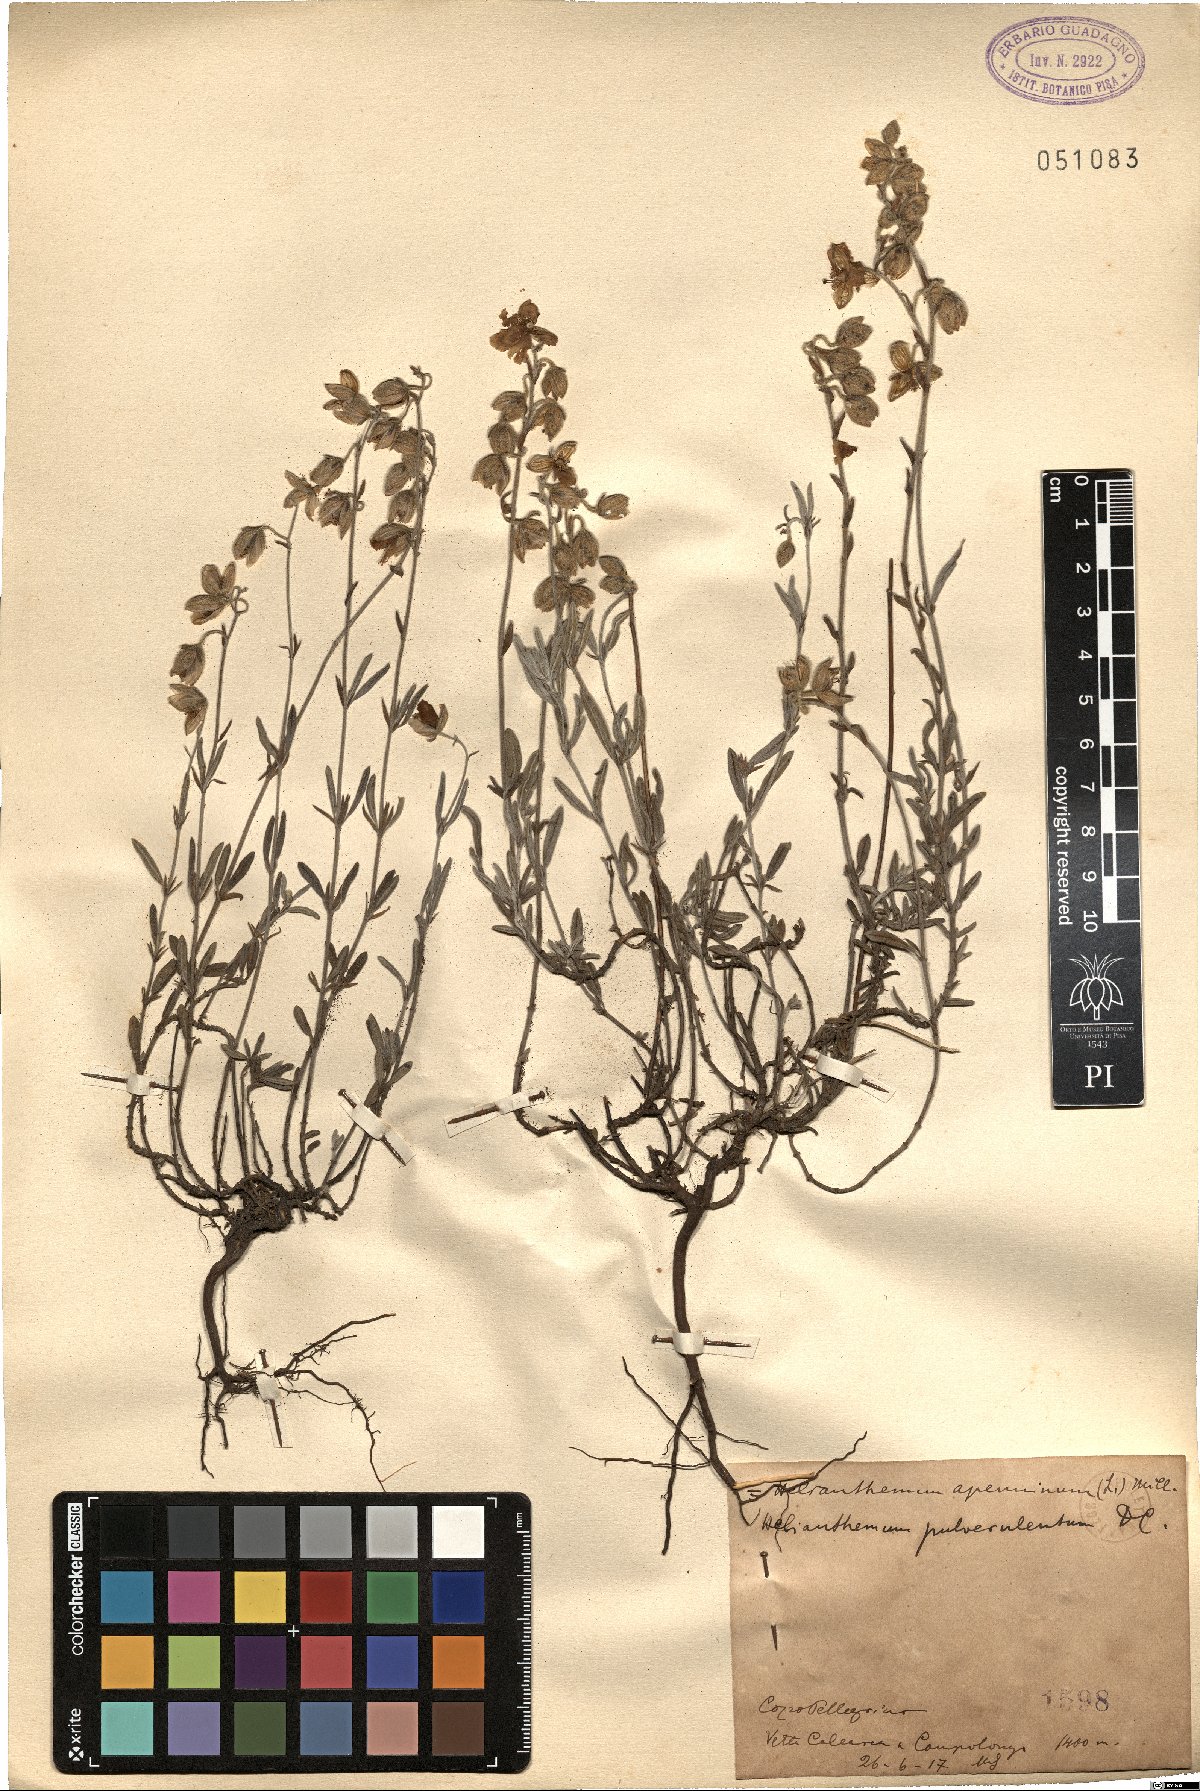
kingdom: Plantae
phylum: Tracheophyta
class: Magnoliopsida
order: Malvales
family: Cistaceae
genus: Helianthemum
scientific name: Helianthemum
